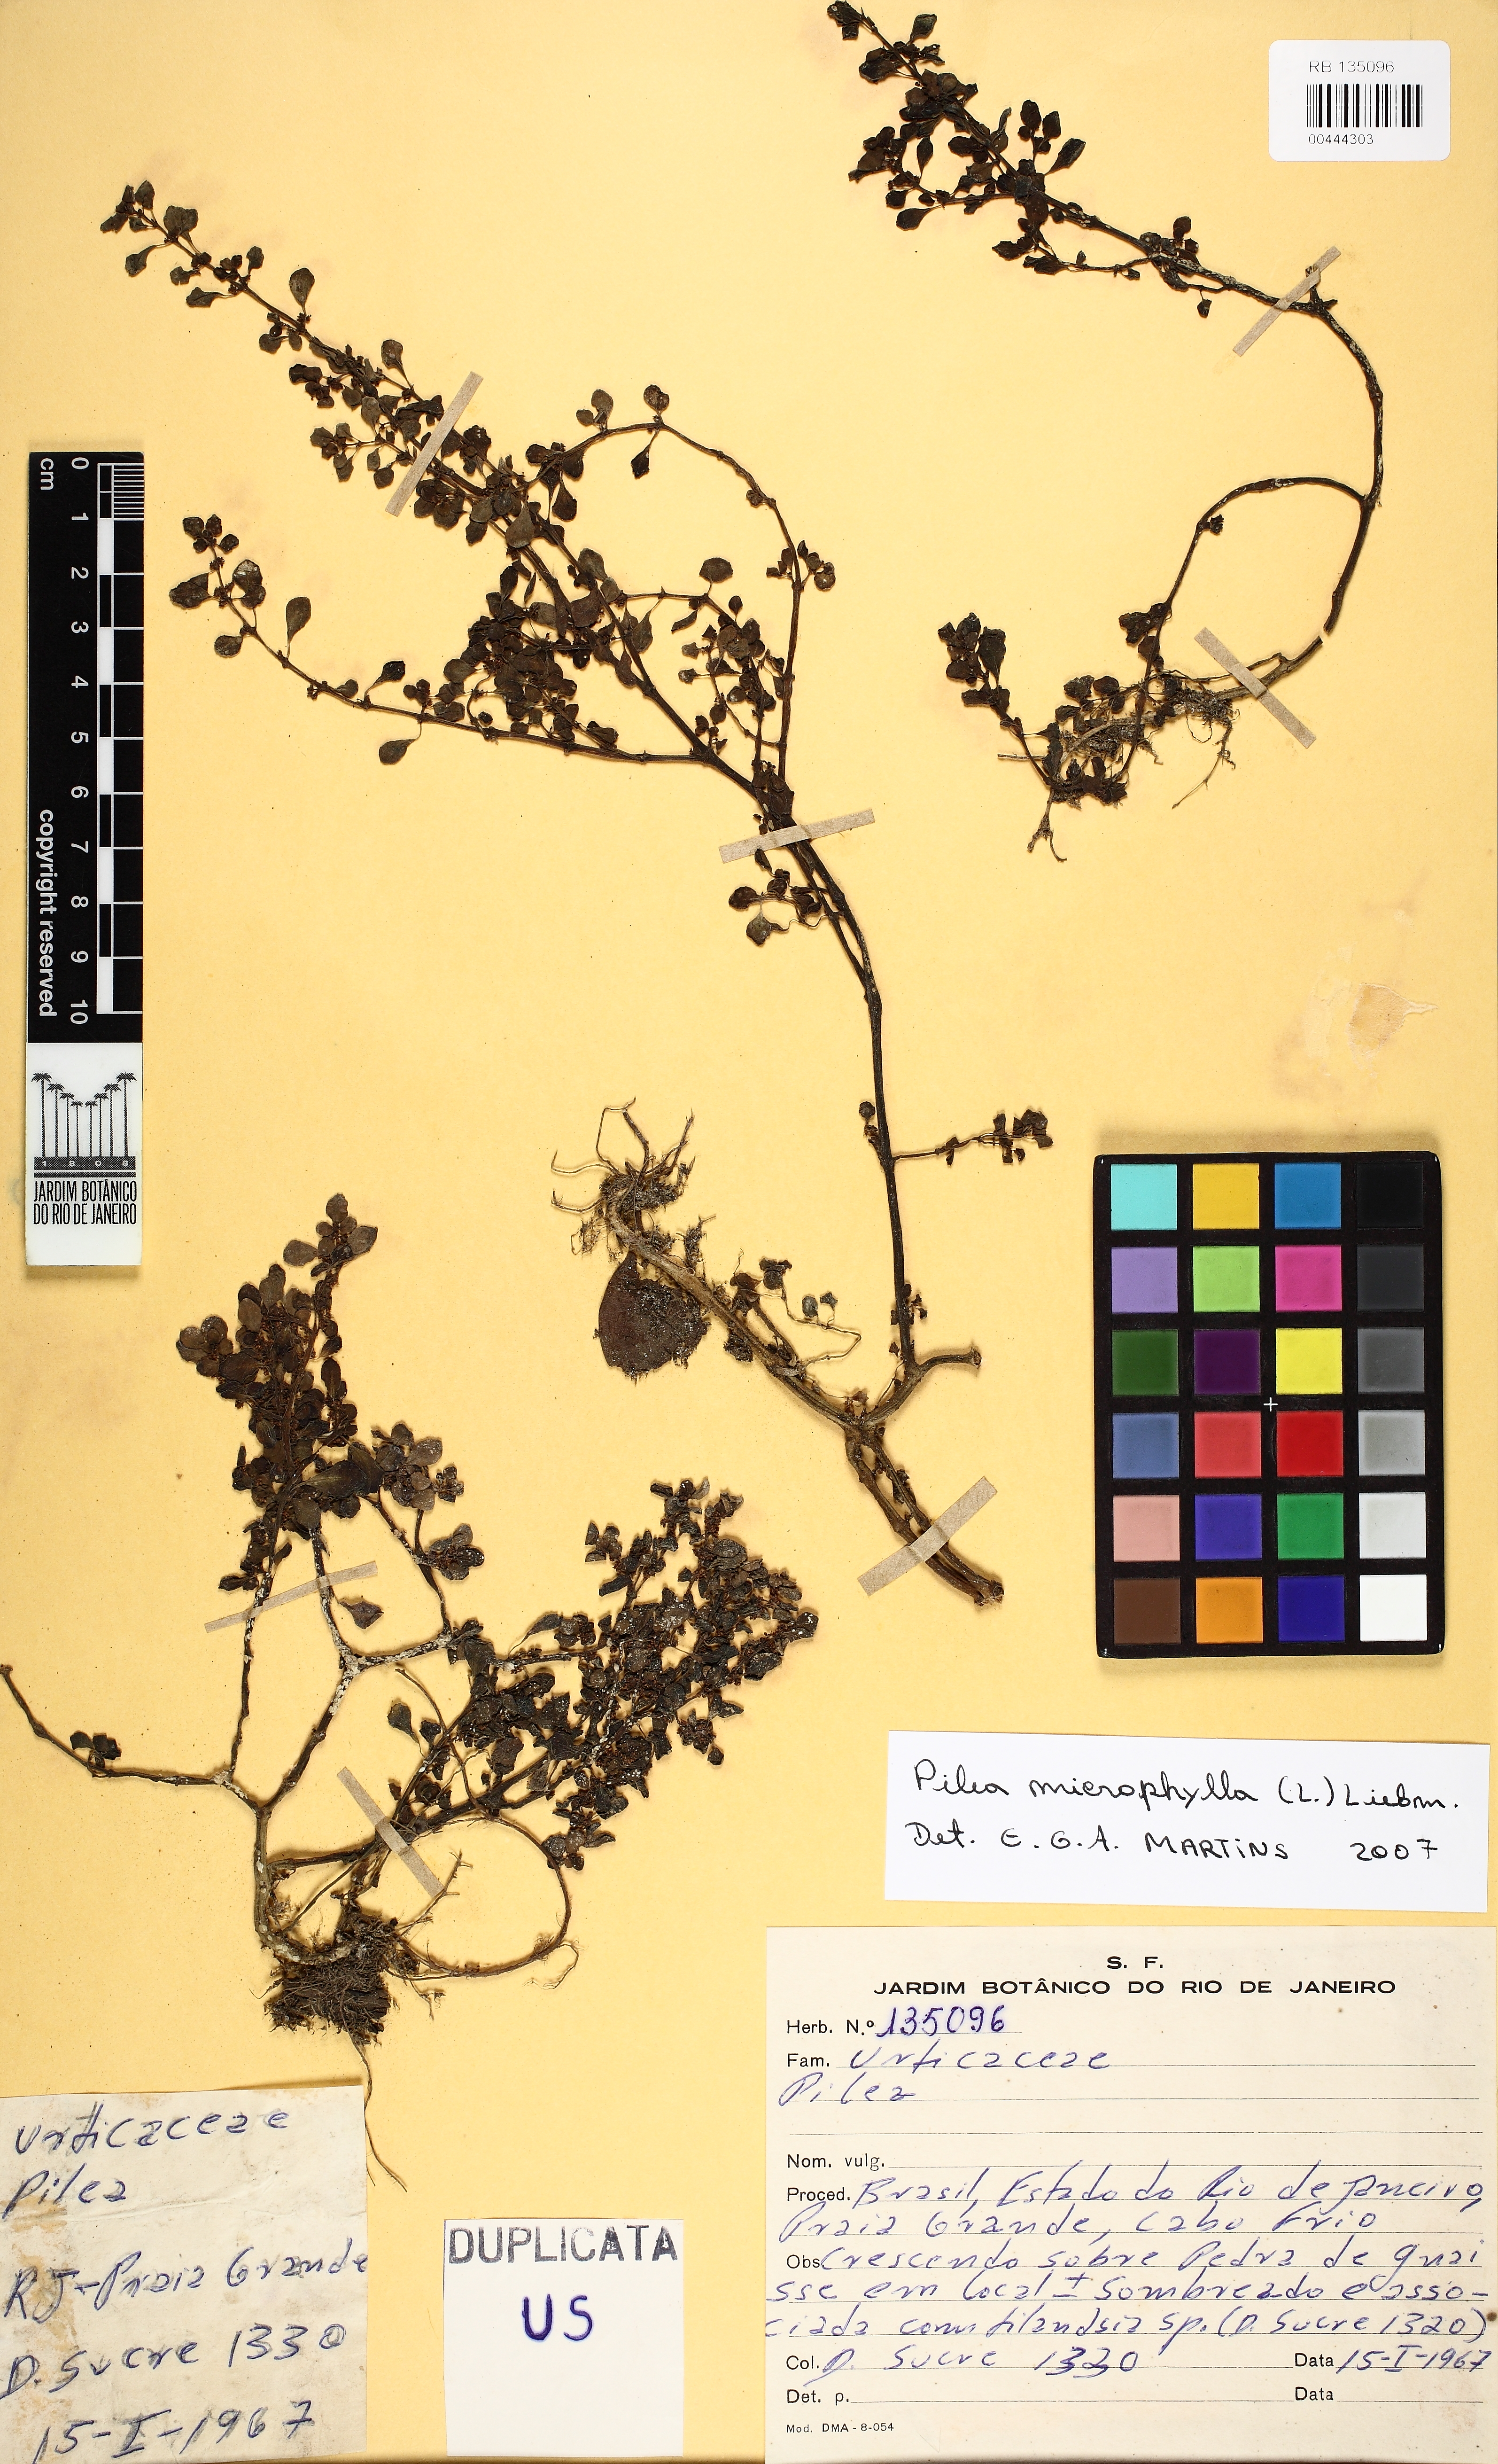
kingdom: Plantae
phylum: Tracheophyta
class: Magnoliopsida
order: Rosales
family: Urticaceae
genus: Pilea
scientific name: Pilea carautae
